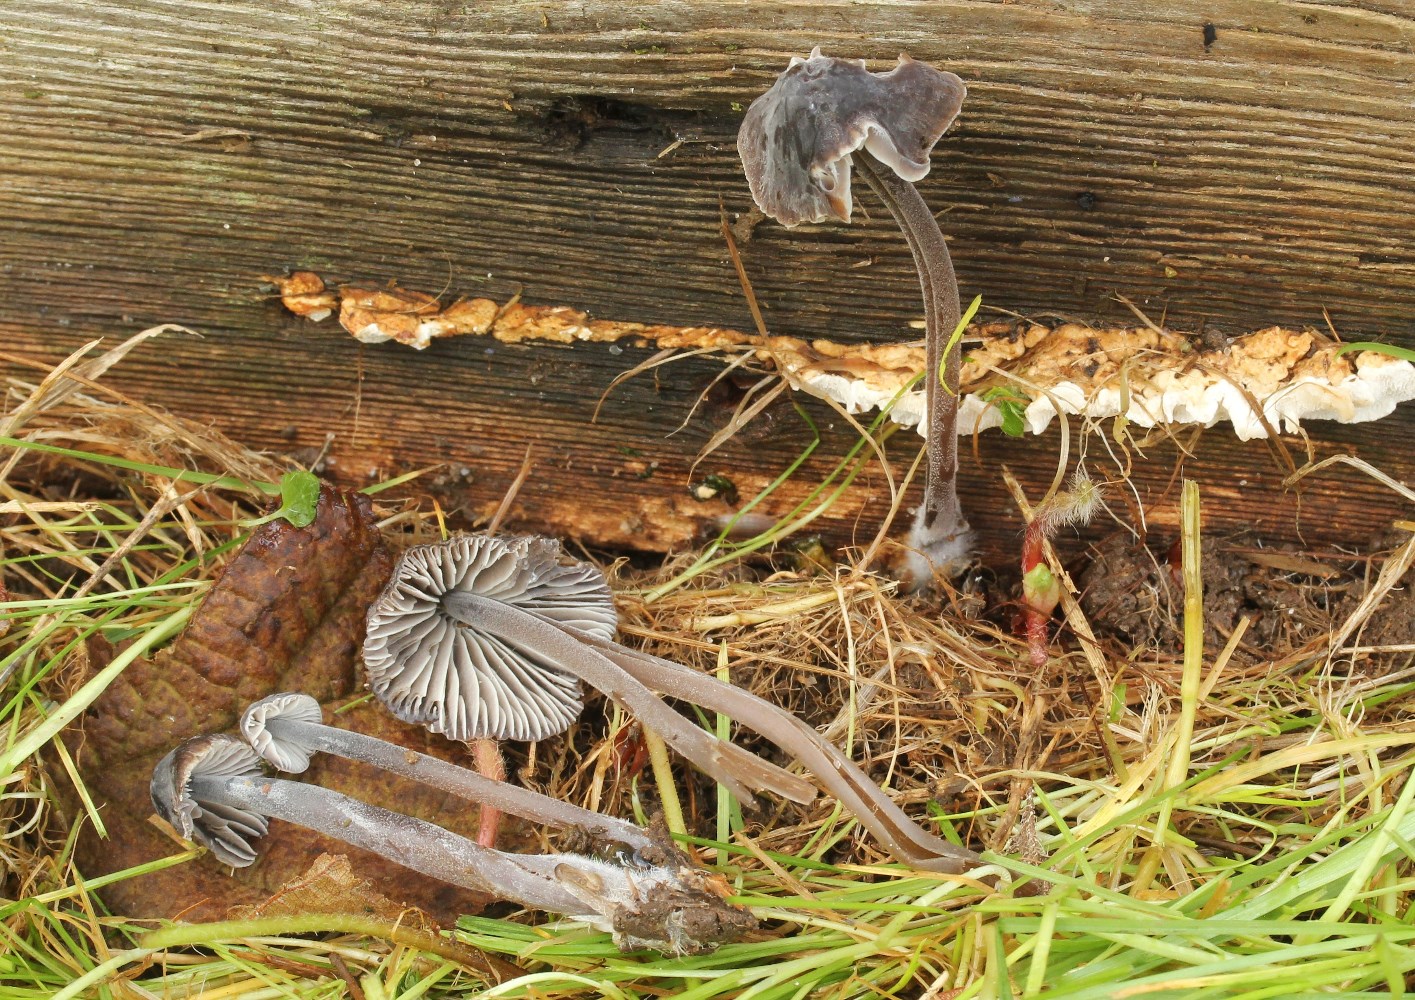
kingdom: Fungi
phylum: Basidiomycota
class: Agaricomycetes
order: Agaricales
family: Mycenaceae
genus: Mycena
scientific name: Mycena leptocephala
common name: klor-huesvamp
